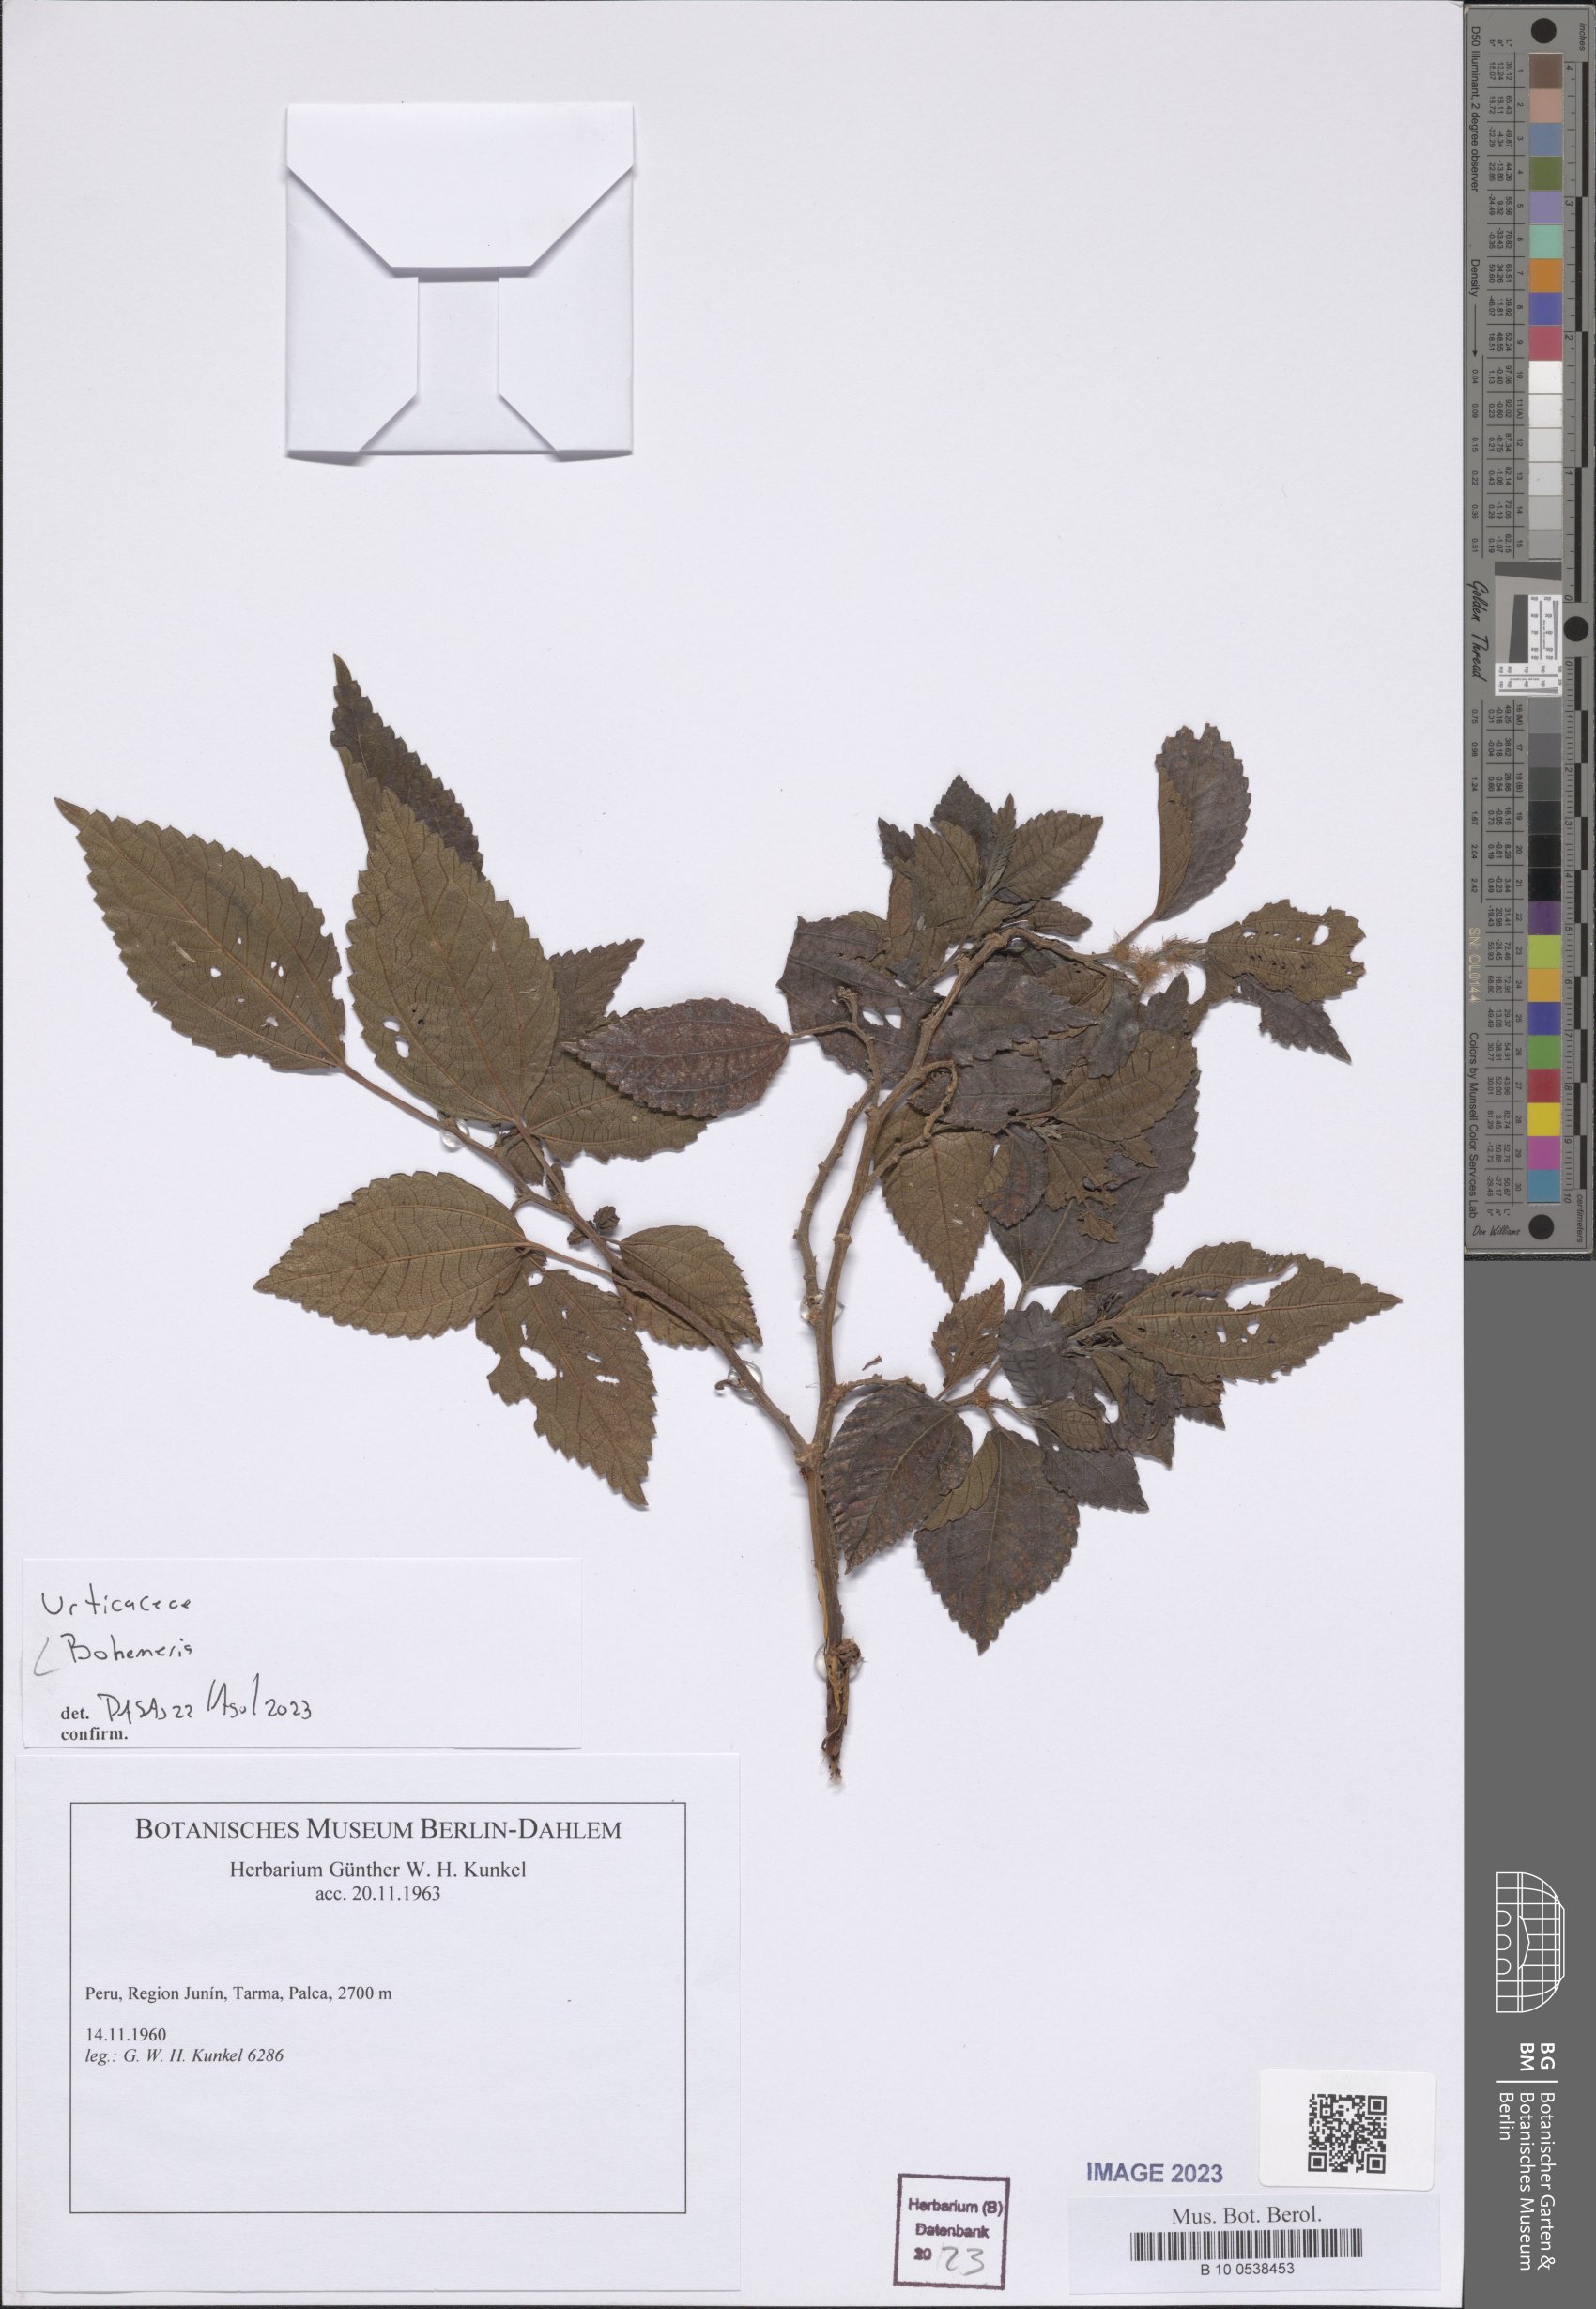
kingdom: Plantae
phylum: Tracheophyta
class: Magnoliopsida
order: Rosales
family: Urticaceae
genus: Boehmeria
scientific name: Boehmeria
